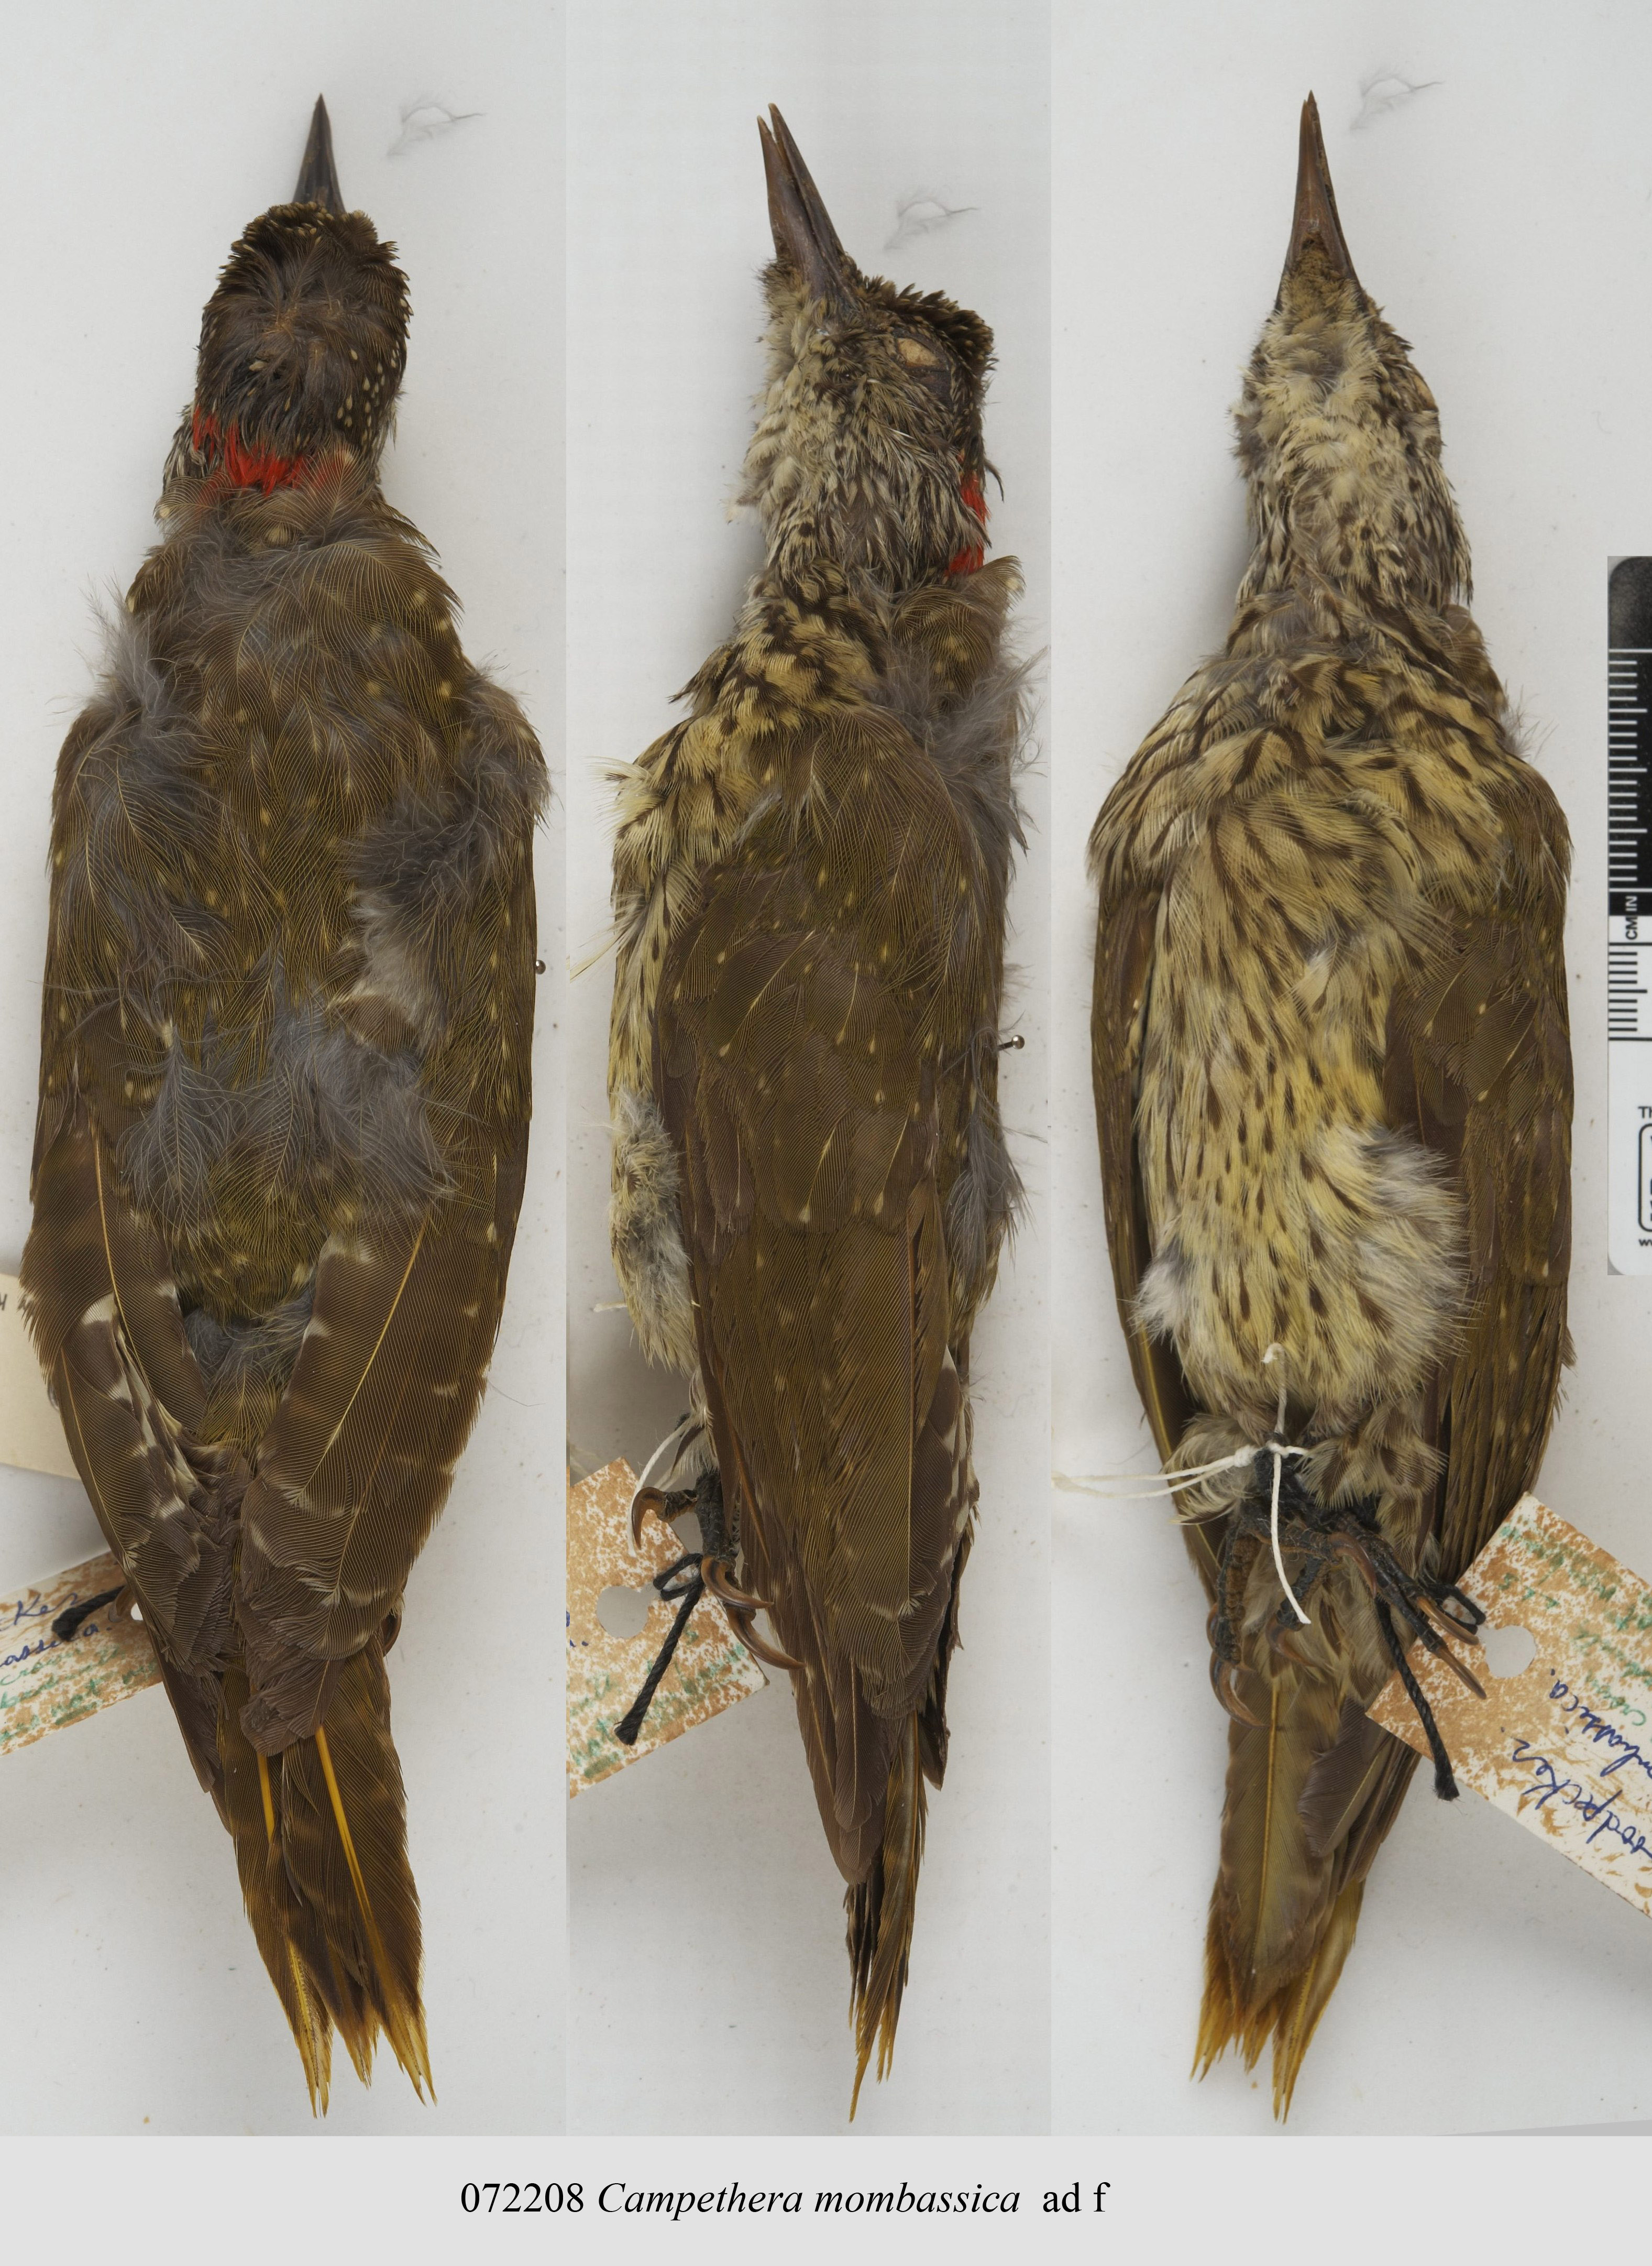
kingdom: Animalia
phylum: Chordata
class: Aves
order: Piciformes
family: Picidae
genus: Campethera
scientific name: Campethera mombassica
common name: Mombasa woodpecker
